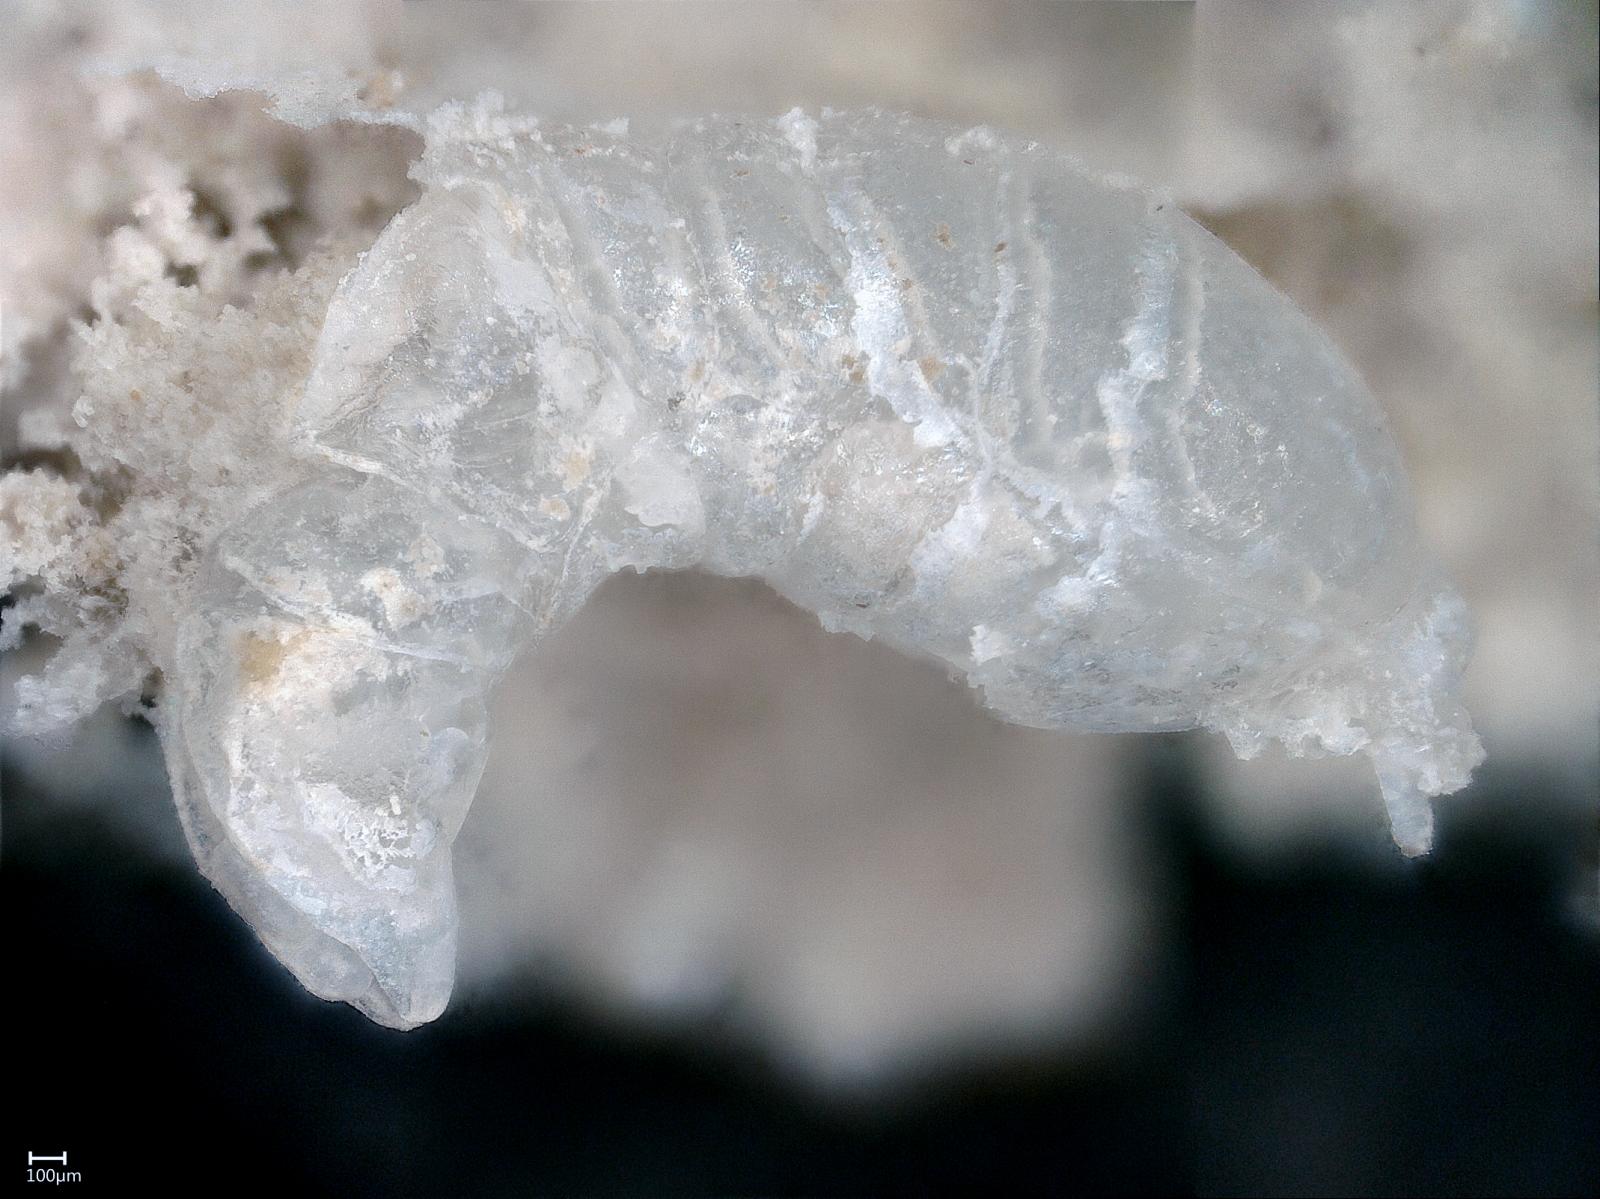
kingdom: Animalia
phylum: Arthropoda
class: Insecta
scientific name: Insecta
